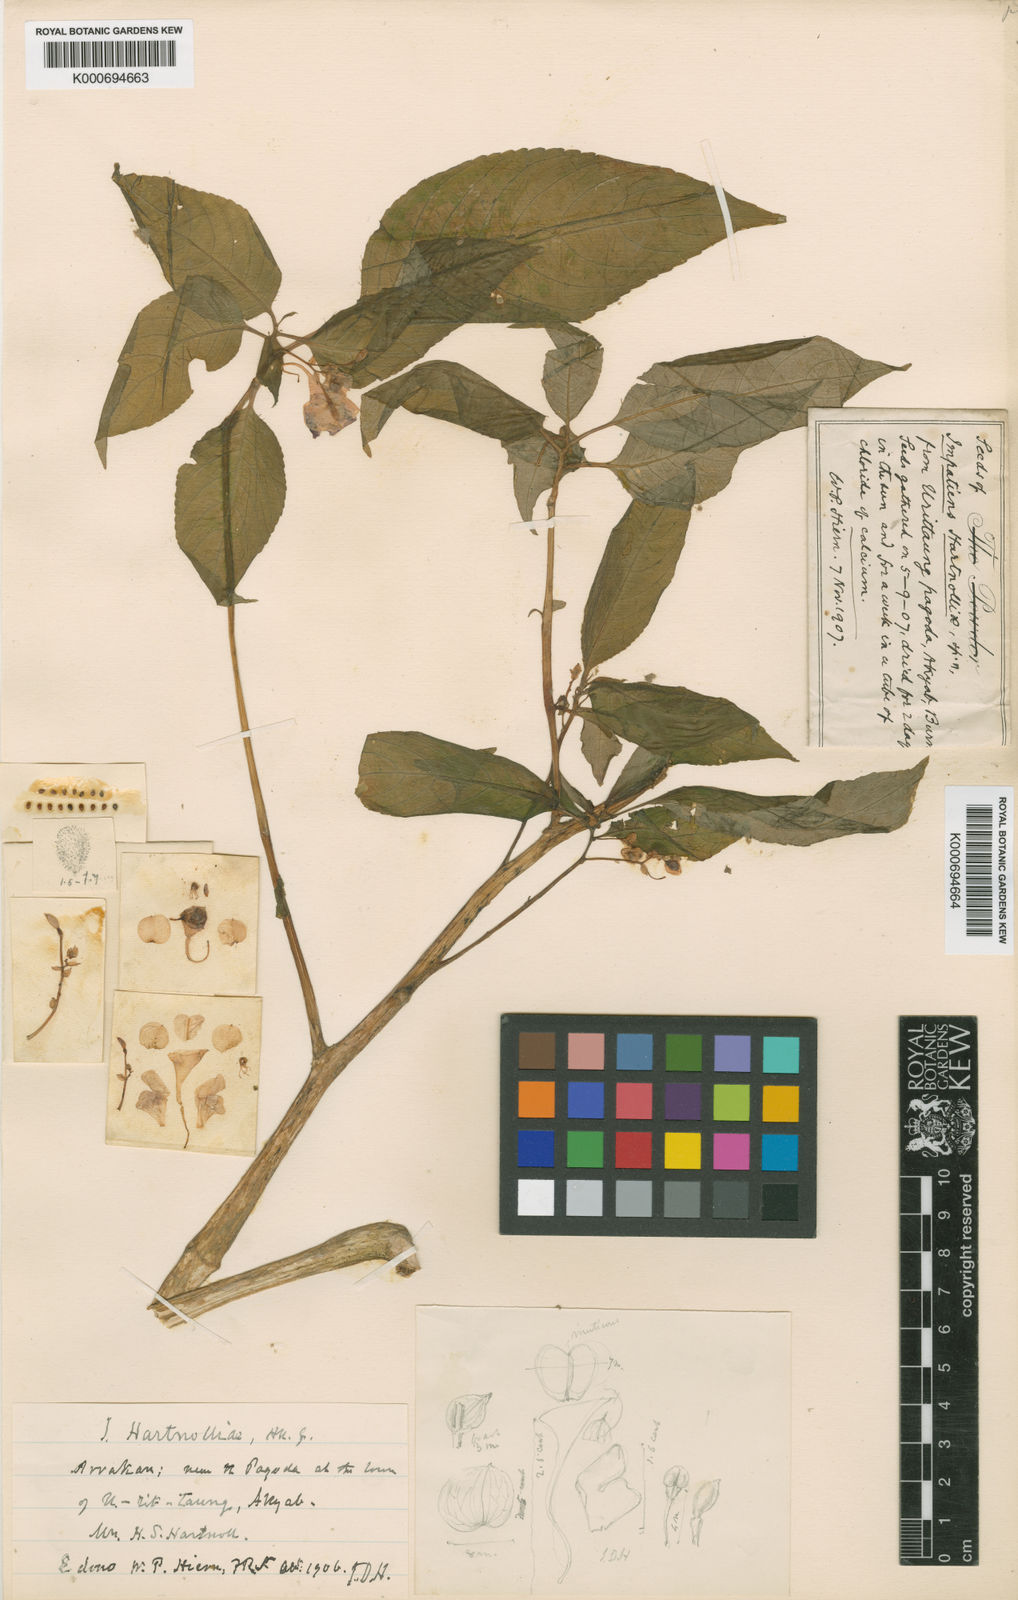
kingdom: Plantae
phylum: Tracheophyta
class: Magnoliopsida
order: Ericales
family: Balsaminaceae
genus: Impatiens
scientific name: Impatiens
